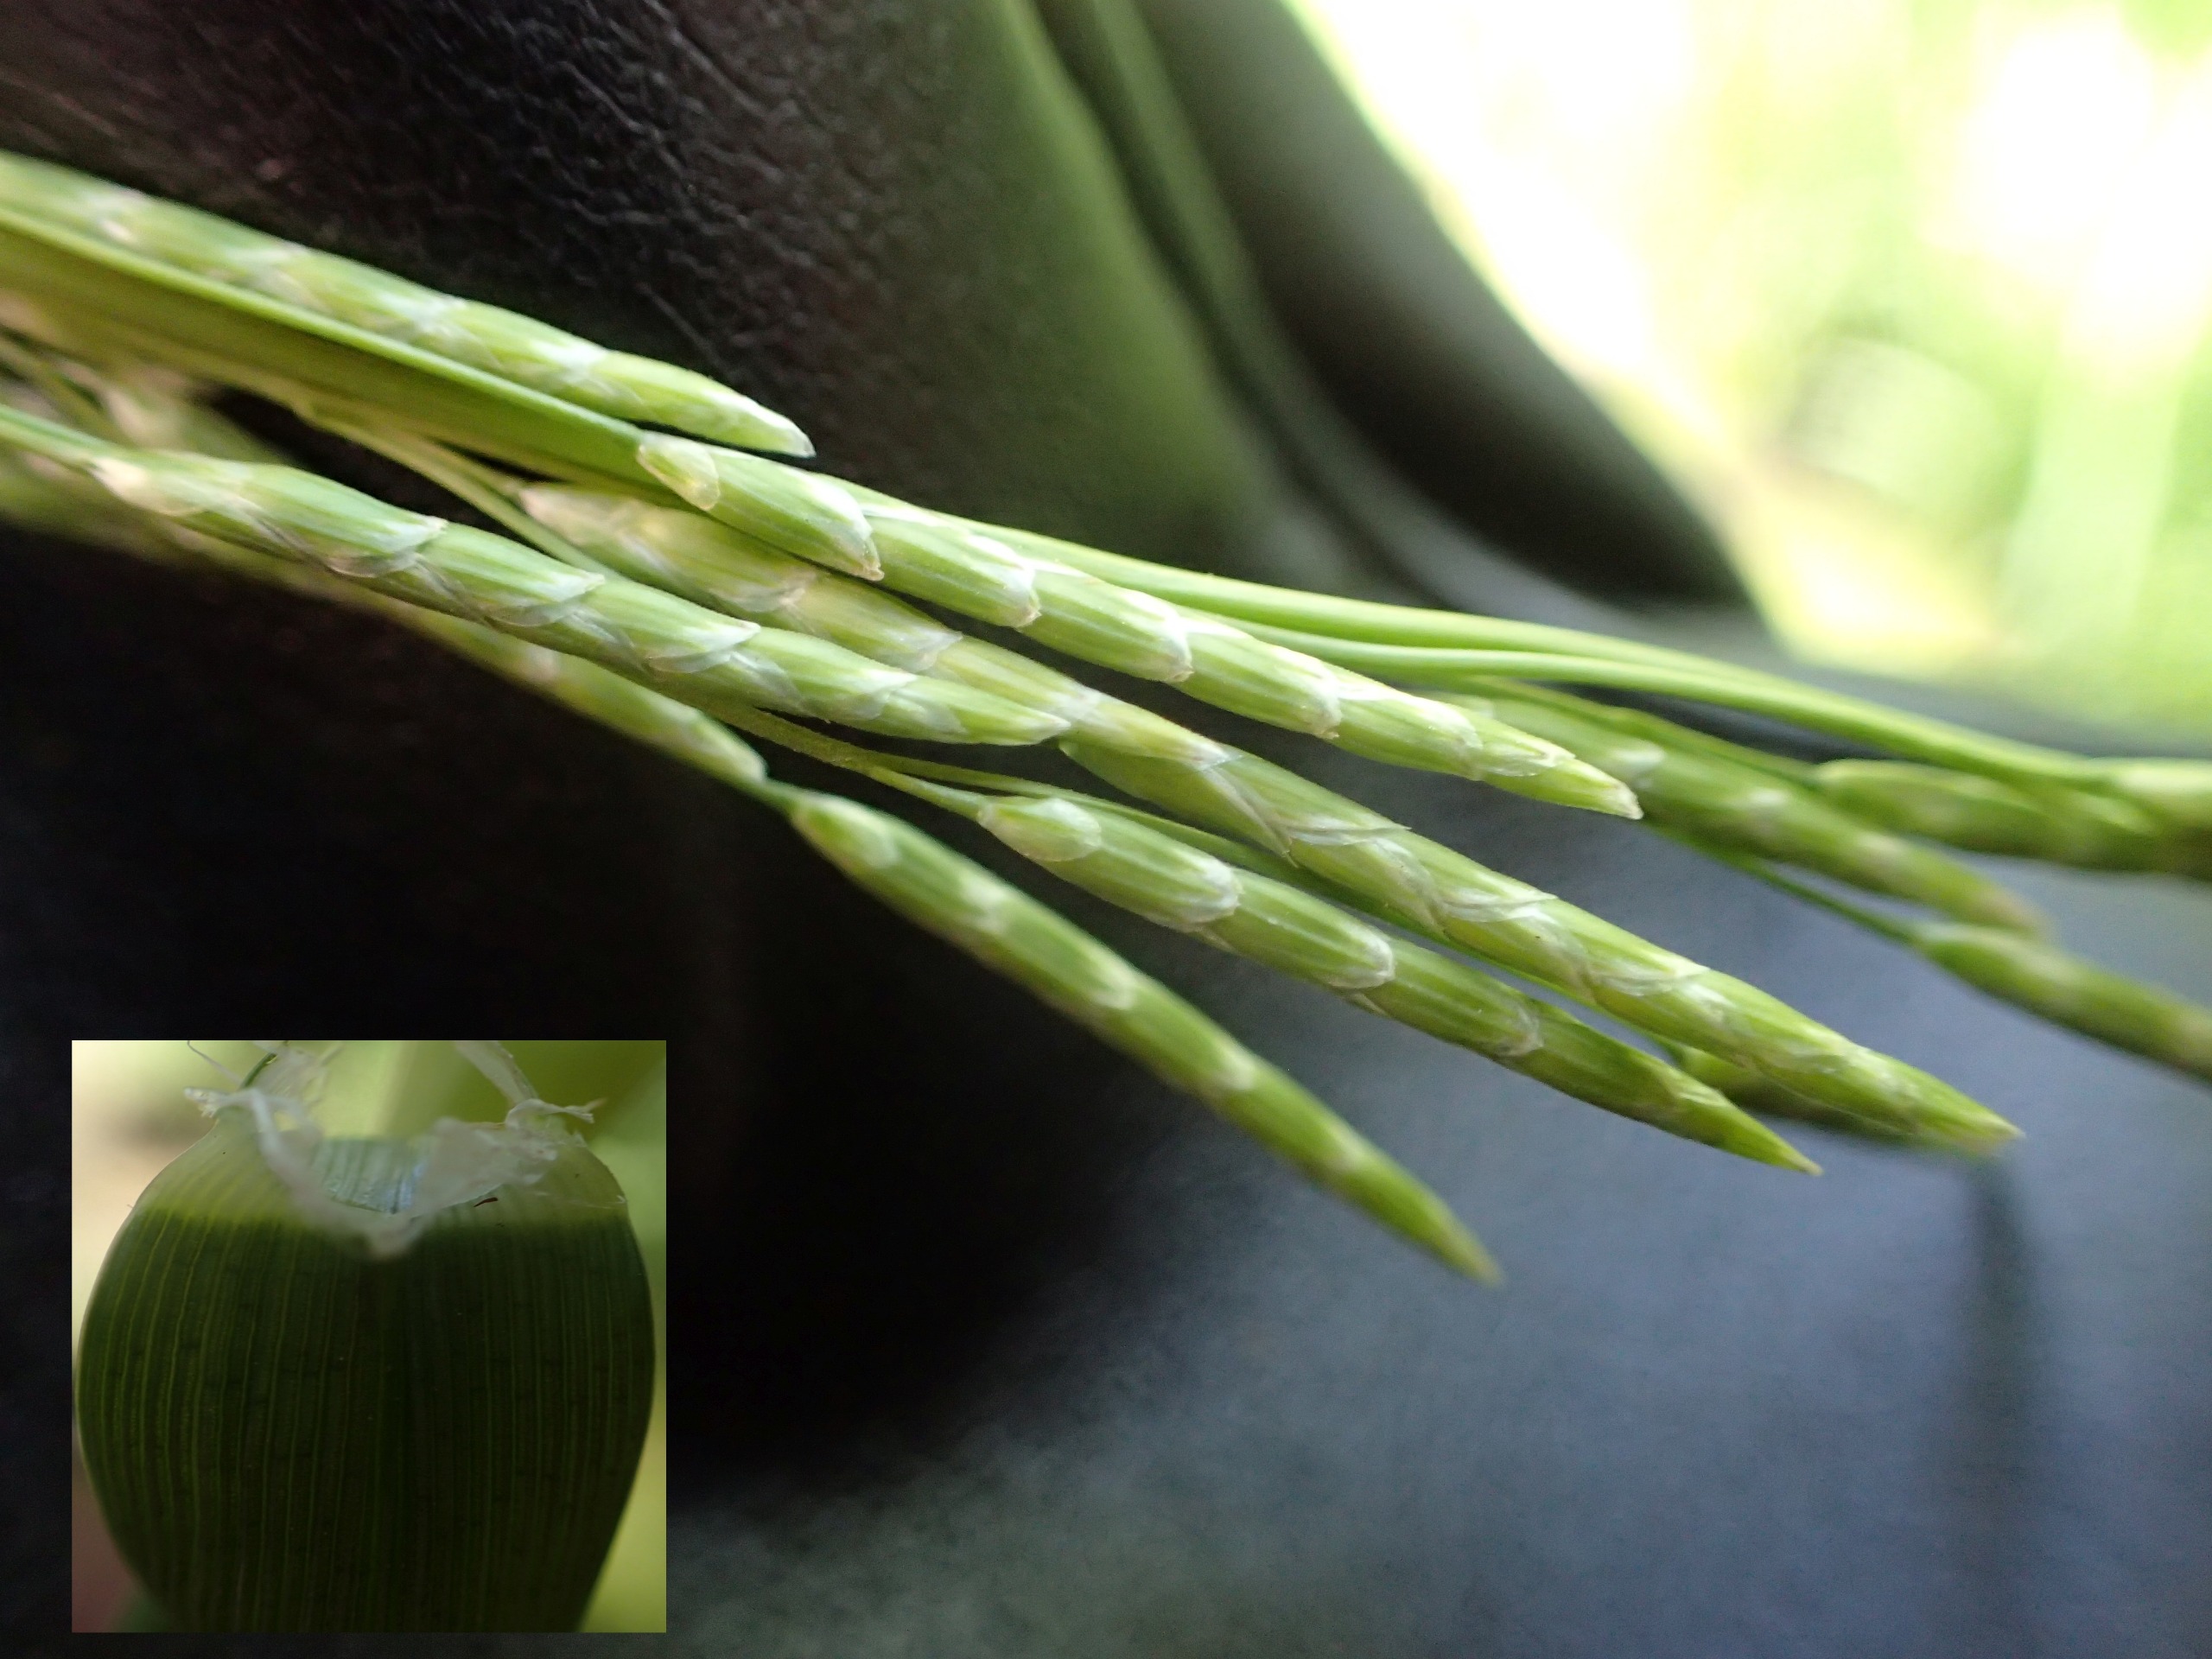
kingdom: Plantae
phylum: Tracheophyta
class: Liliopsida
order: Poales
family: Poaceae
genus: Glyceria
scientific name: Glyceria notata
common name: Butblomstret sødgræs
